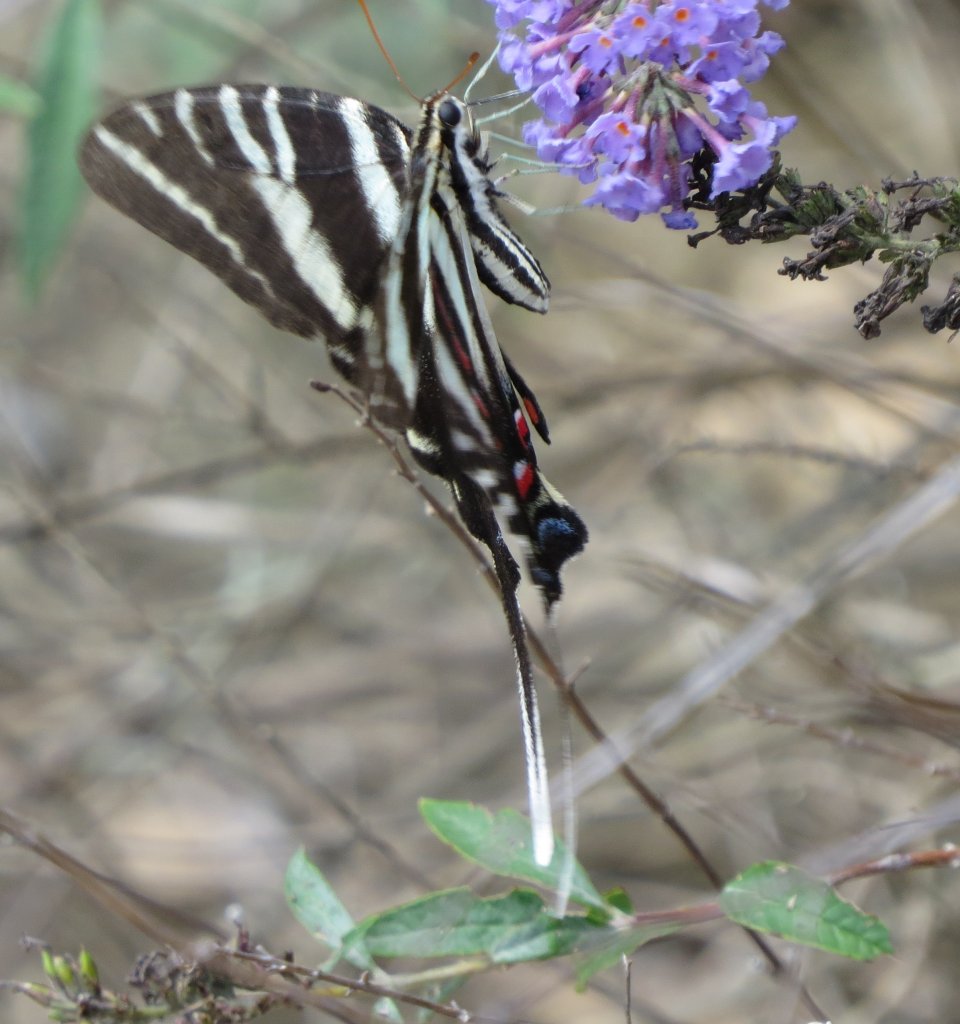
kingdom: Animalia
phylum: Arthropoda
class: Insecta
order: Lepidoptera
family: Papilionidae
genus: Protographium
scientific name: Protographium marcellus
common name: Zebra Swallowtail
